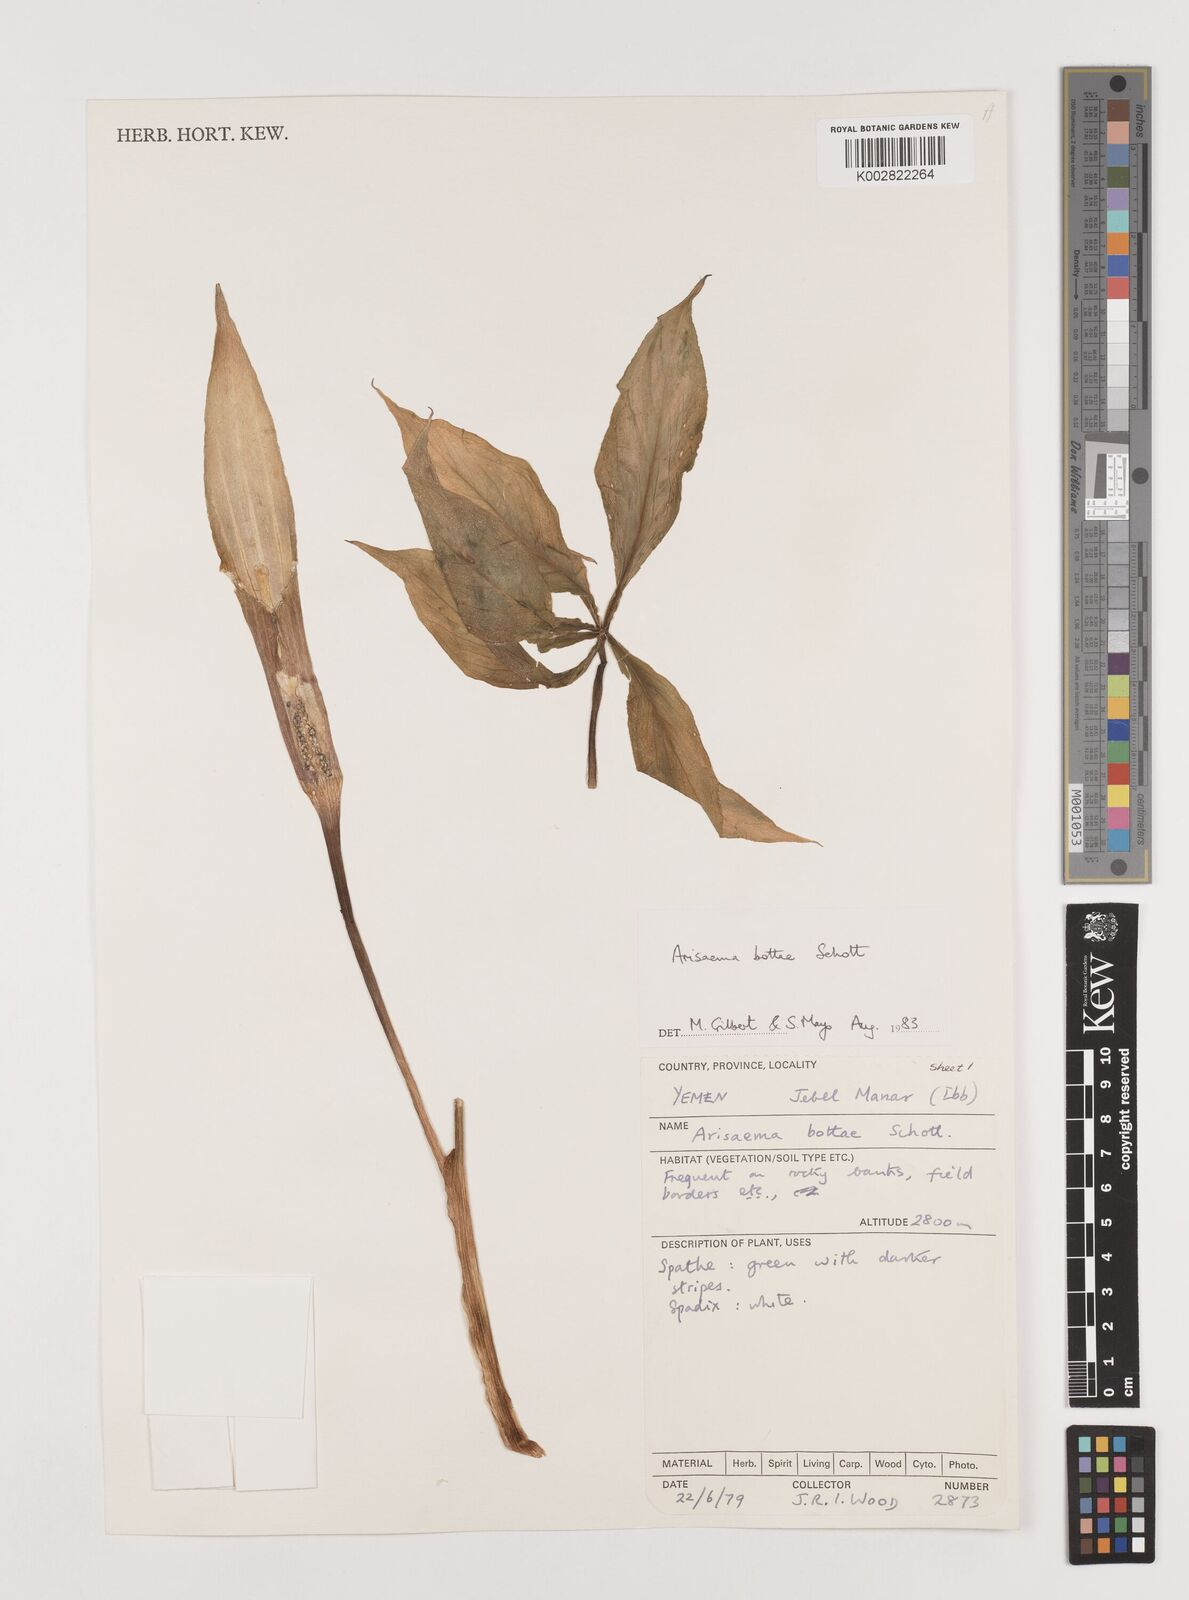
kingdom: Plantae
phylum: Tracheophyta
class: Liliopsida
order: Alismatales
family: Araceae
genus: Arisaema
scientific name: Arisaema bottae
